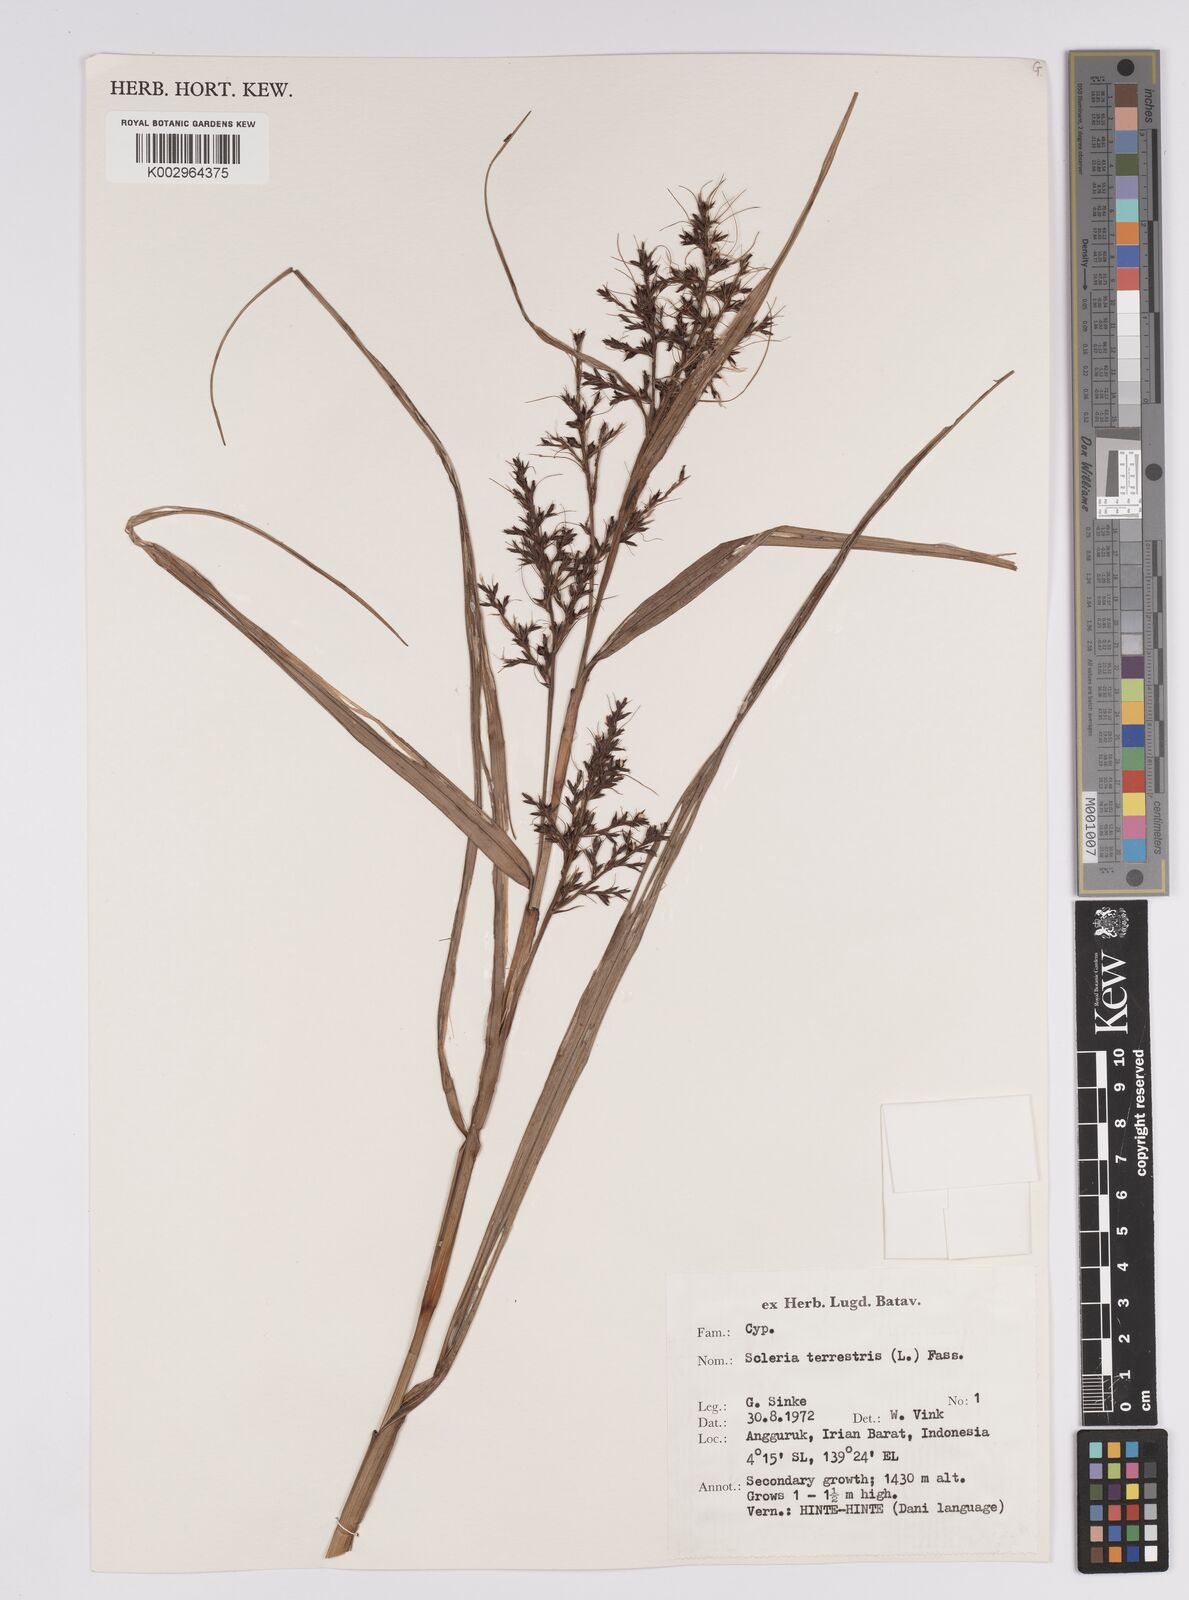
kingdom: Plantae
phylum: Tracheophyta
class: Liliopsida
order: Poales
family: Cyperaceae
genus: Scleria
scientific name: Scleria terrestris
